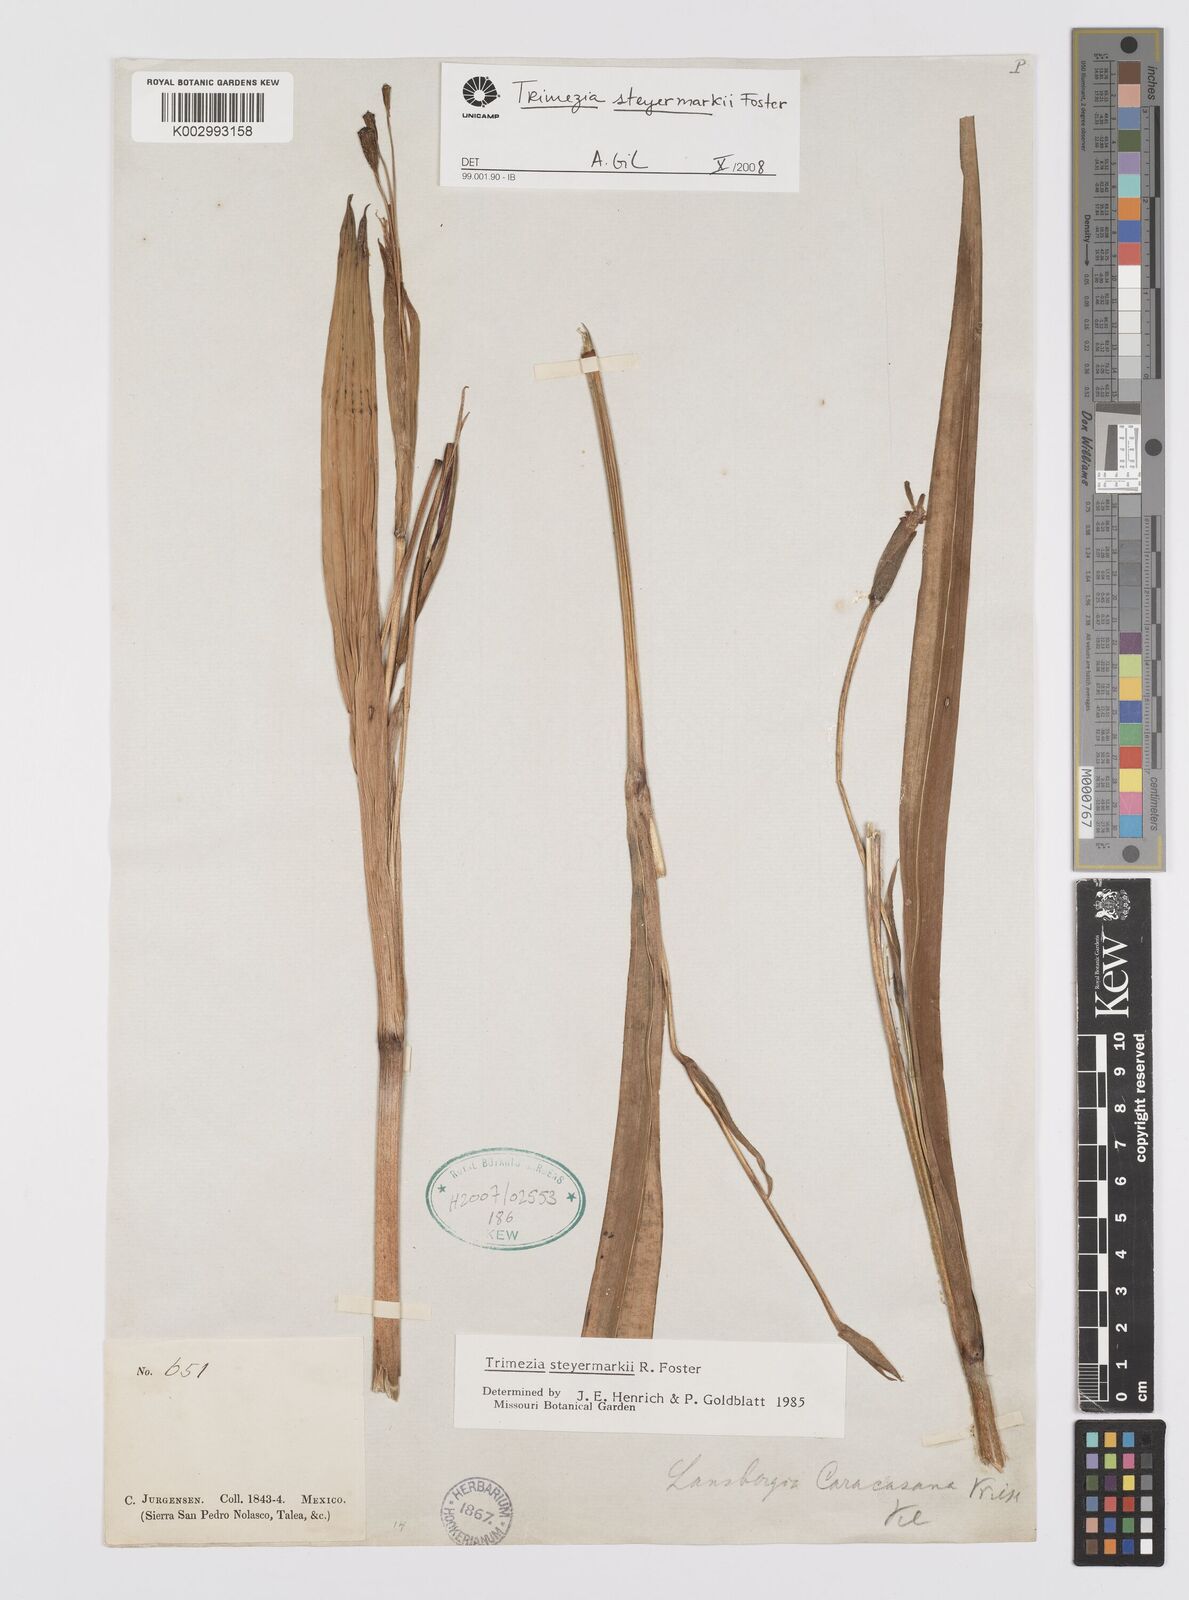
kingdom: Plantae
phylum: Tracheophyta
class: Liliopsida
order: Asparagales
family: Iridaceae
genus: Trimezia
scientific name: Trimezia steyermarkii
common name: Trimezia
